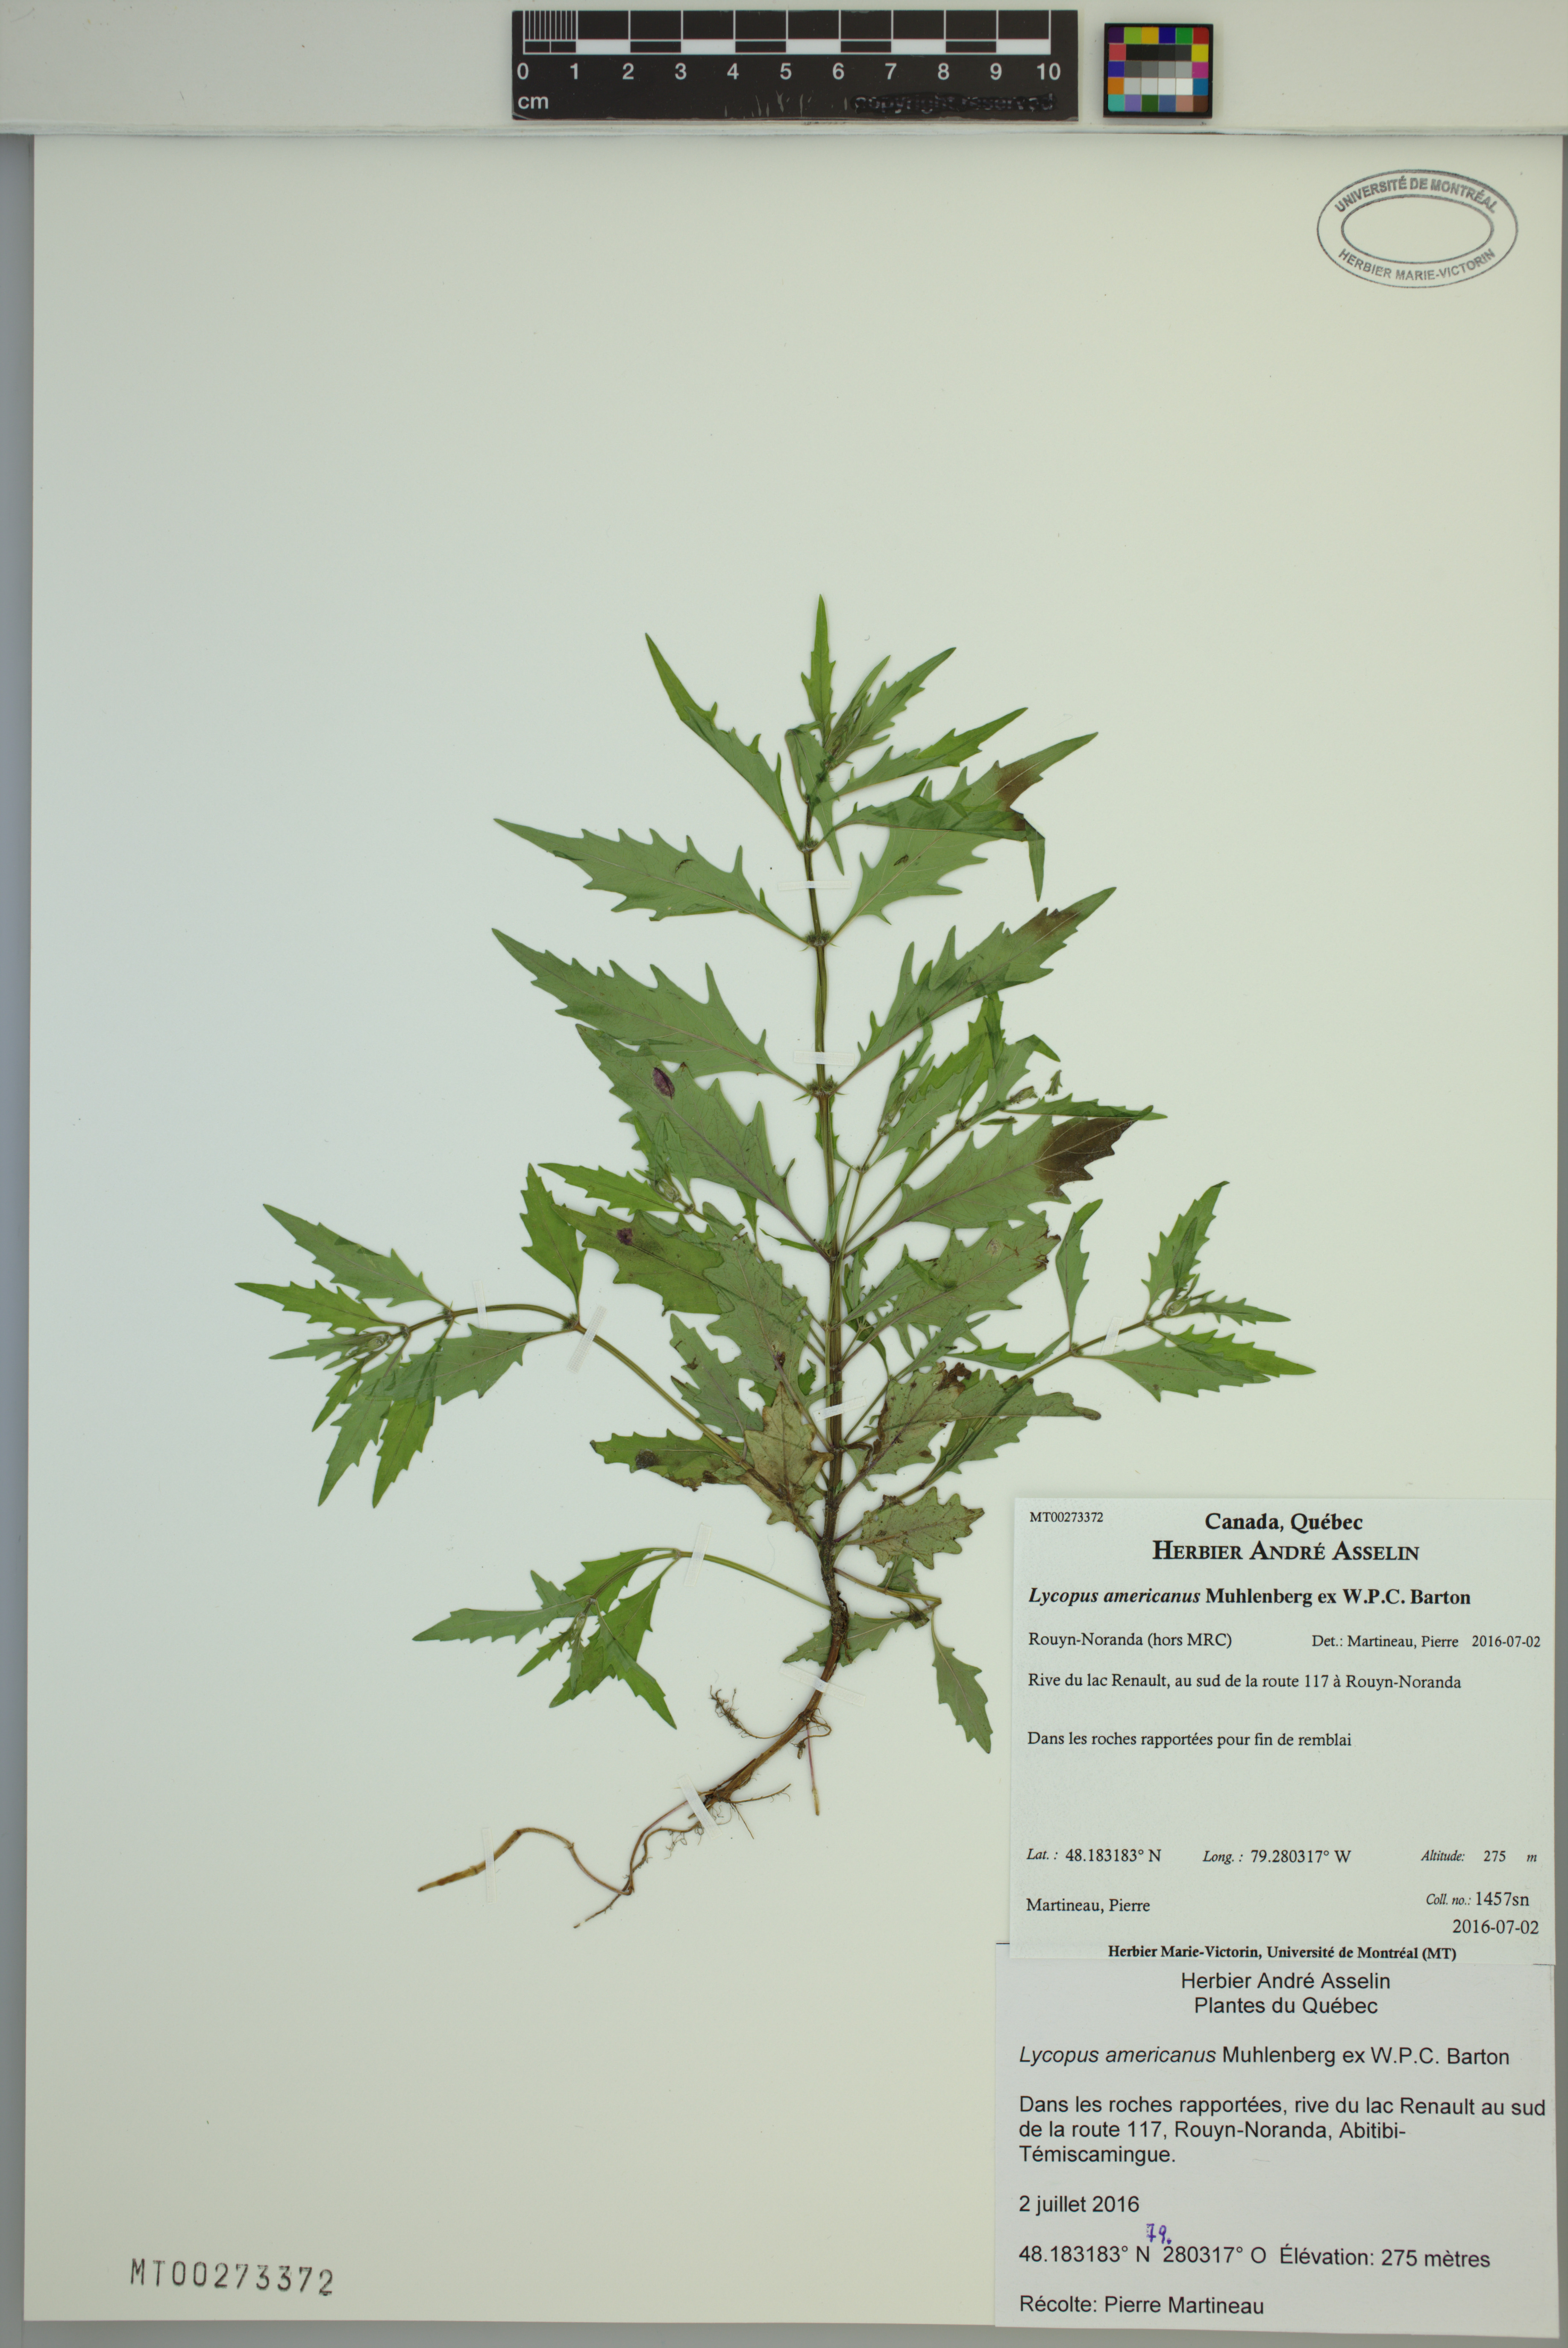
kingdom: Plantae
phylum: Tracheophyta
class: Magnoliopsida
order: Lamiales
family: Lamiaceae
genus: Lycopus
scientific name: Lycopus americanus
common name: American bugleweed
